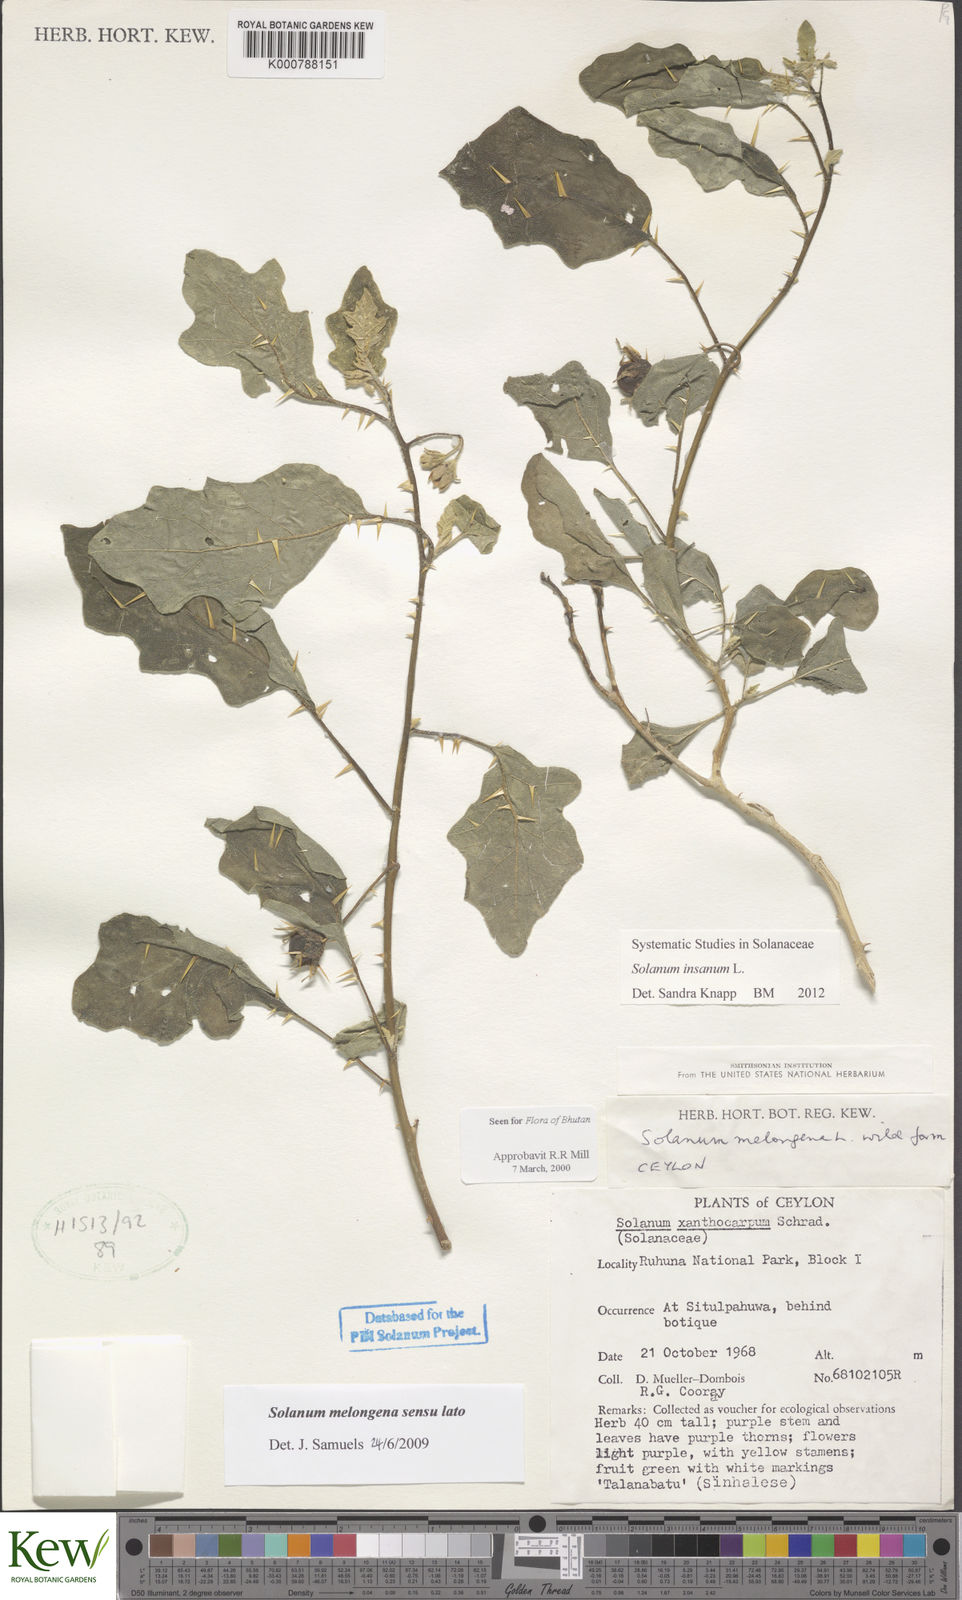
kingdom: Plantae
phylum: Tracheophyta
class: Magnoliopsida
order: Solanales
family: Solanaceae
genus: Solanum
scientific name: Solanum insanum
